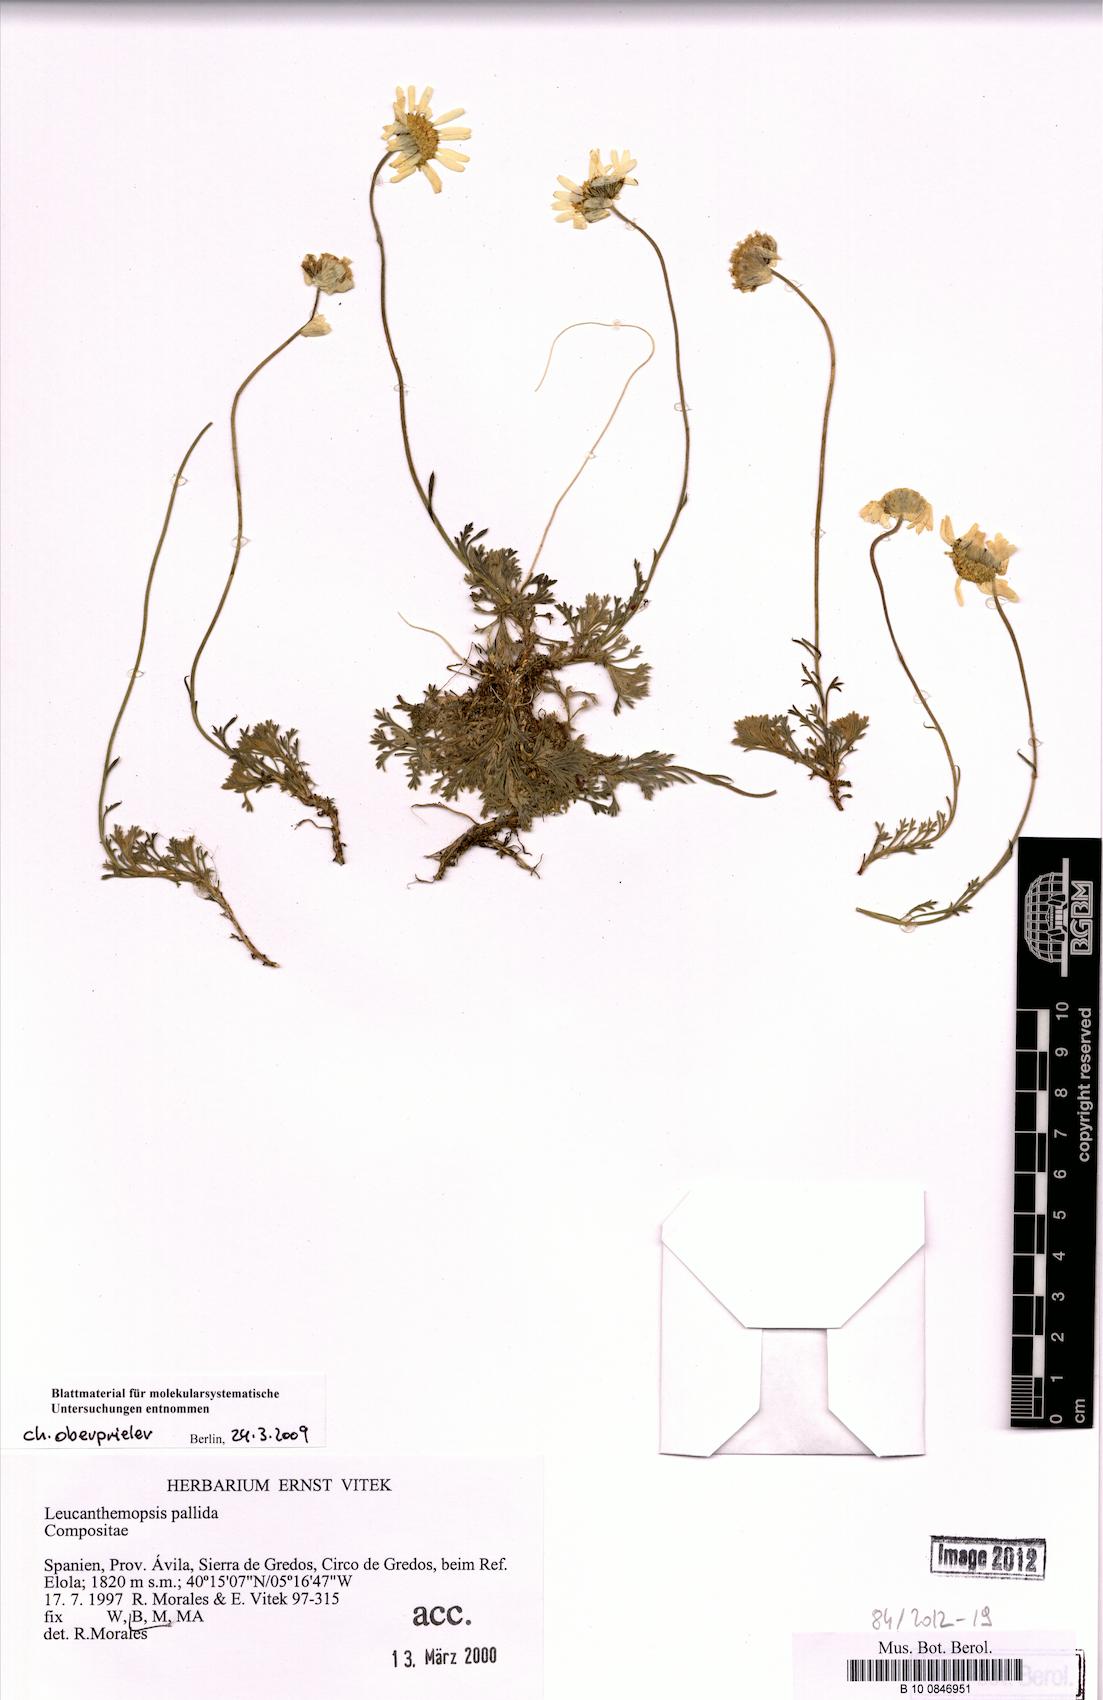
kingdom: Plantae
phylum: Tracheophyta
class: Magnoliopsida
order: Asterales
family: Asteraceae
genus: Leucanthemopsis
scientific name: Leucanthemopsis pallida
